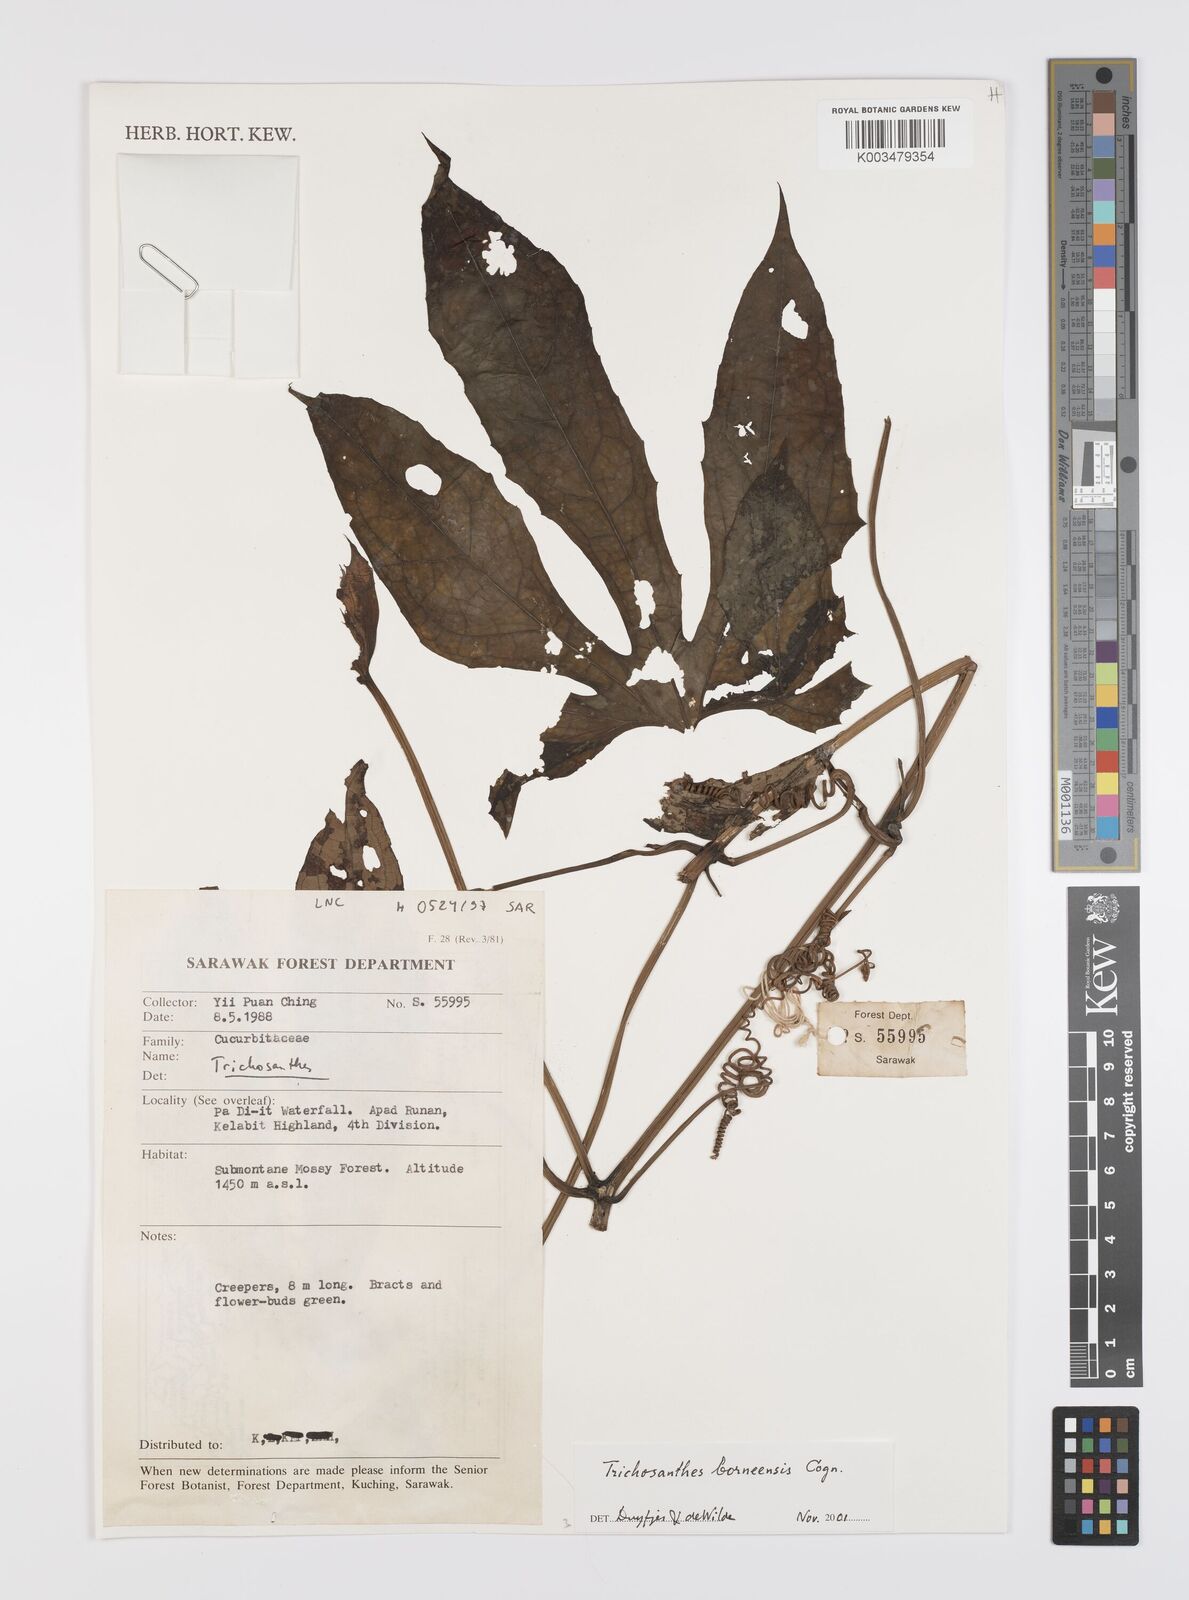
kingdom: Plantae
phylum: Tracheophyta
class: Magnoliopsida
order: Cucurbitales
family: Cucurbitaceae
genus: Trichosanthes
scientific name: Trichosanthes borneensis
